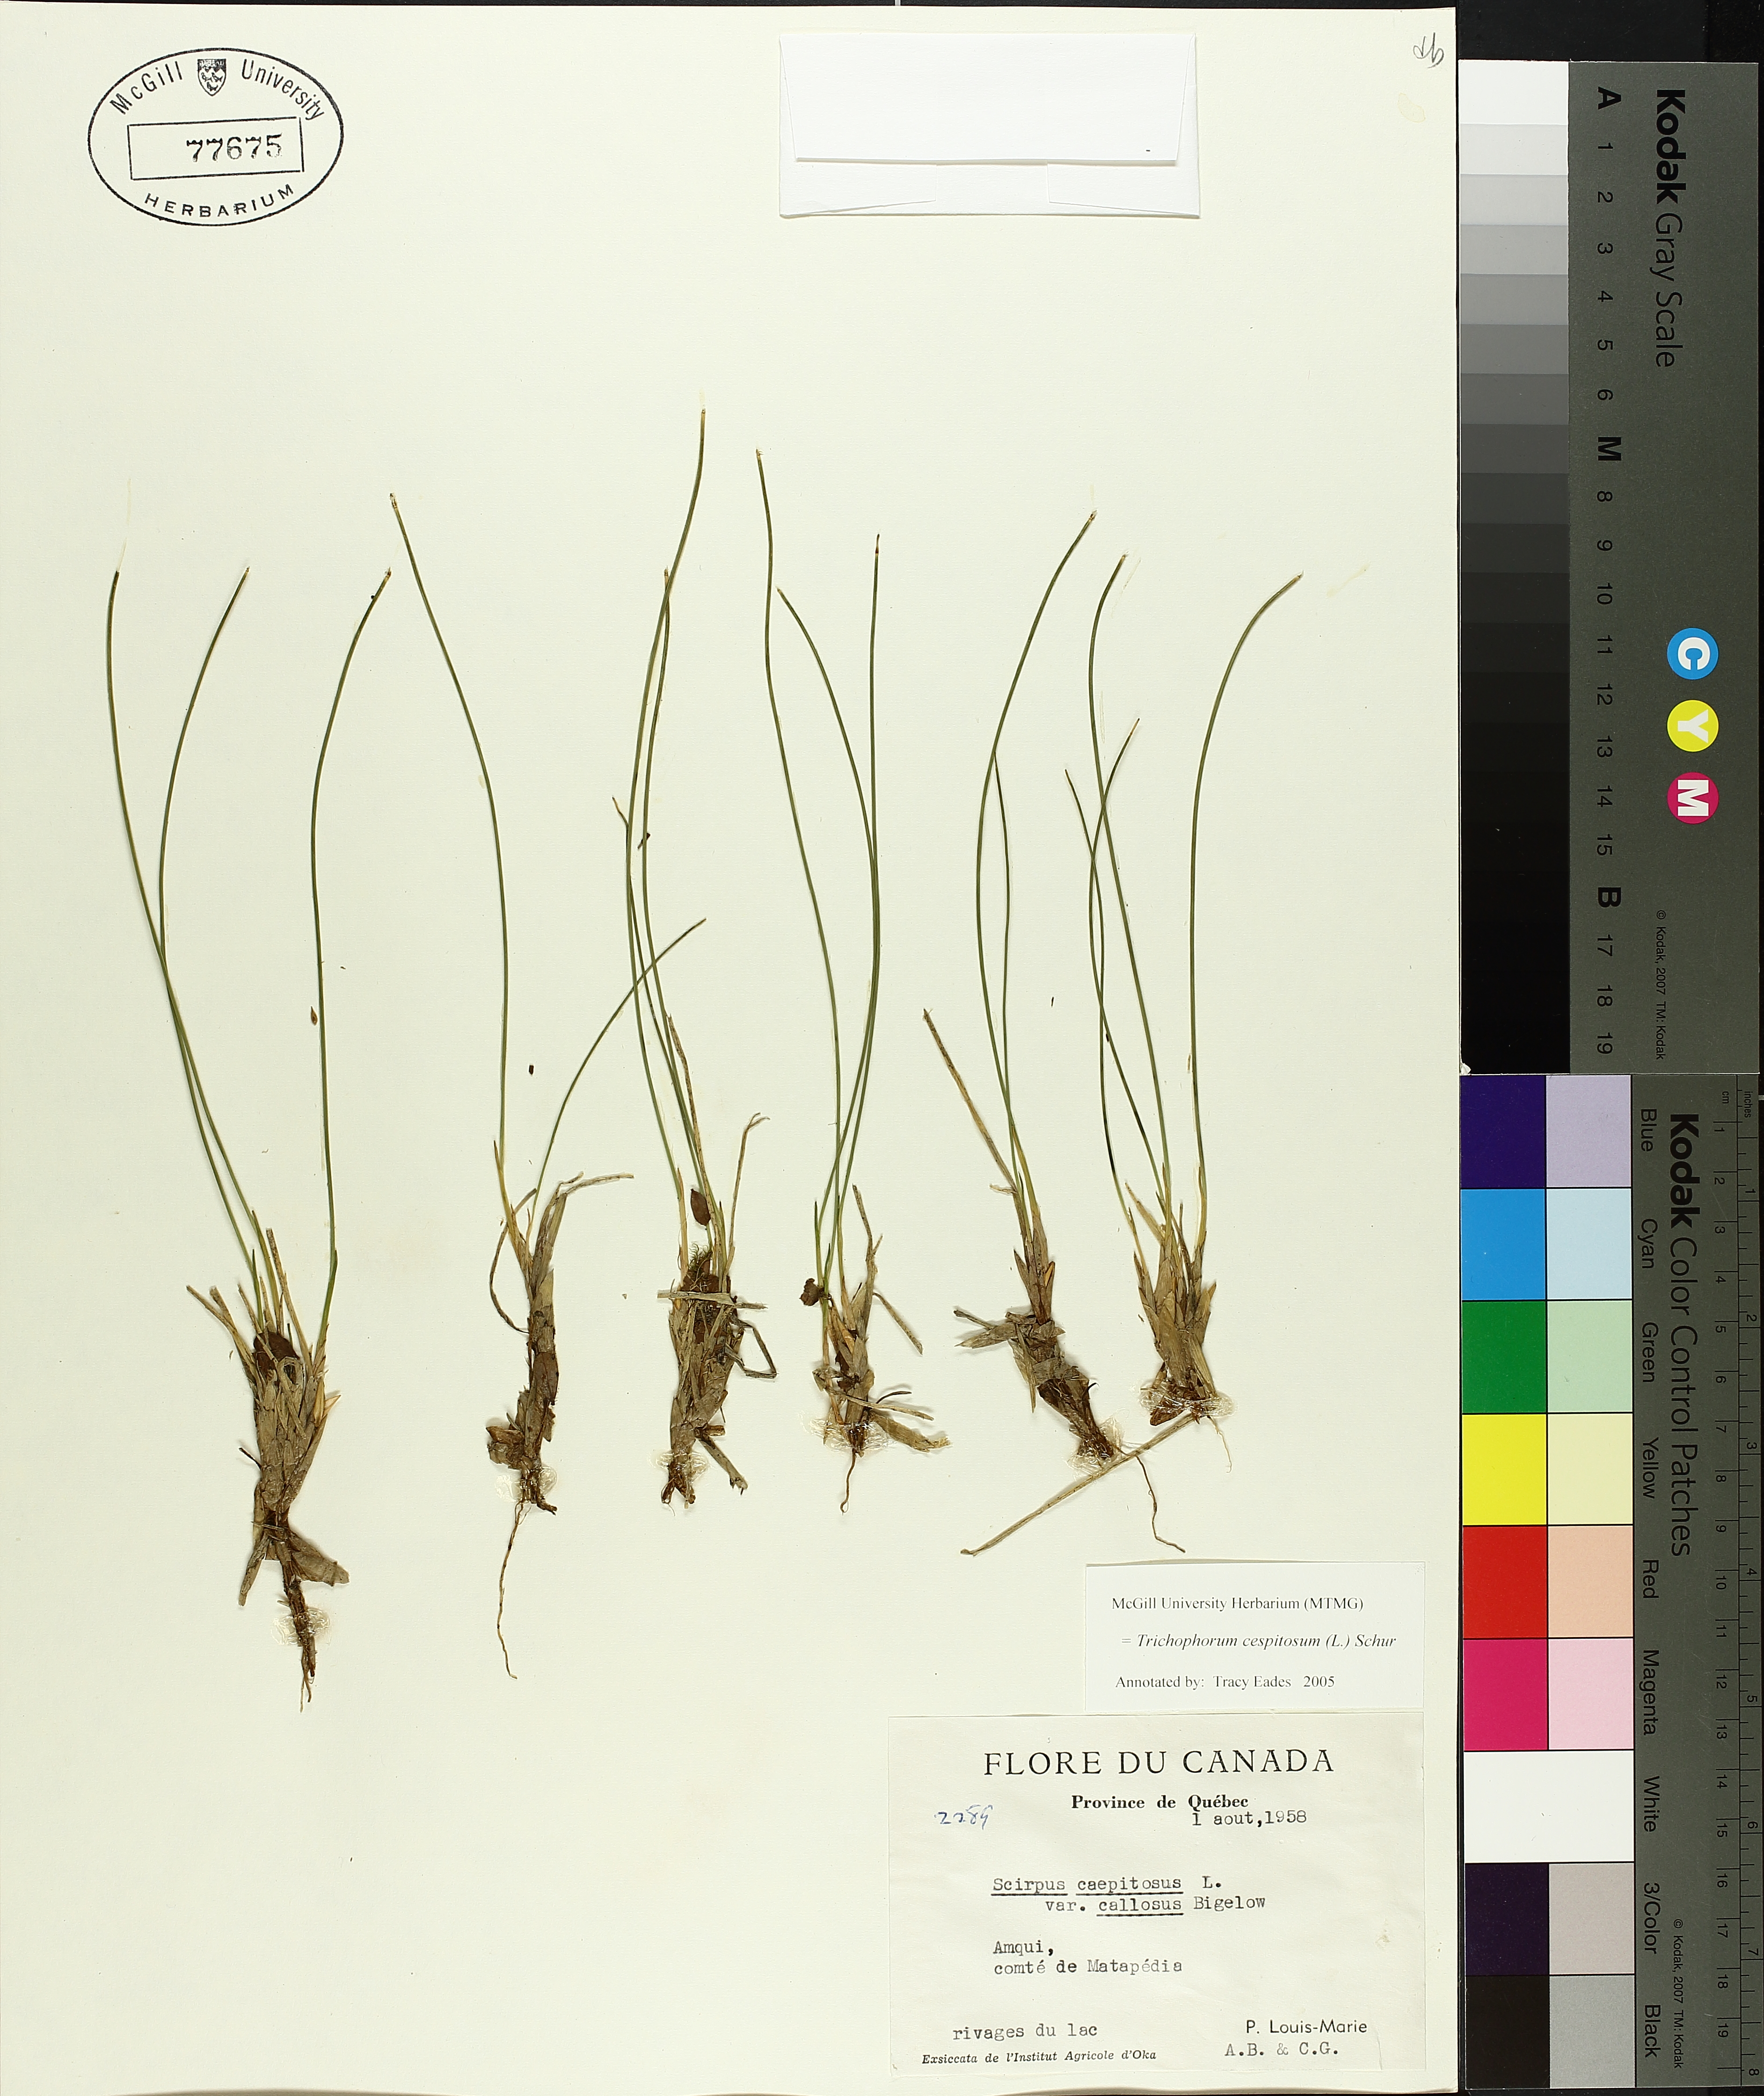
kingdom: Plantae
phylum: Tracheophyta
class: Liliopsida
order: Poales
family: Cyperaceae
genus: Trichophorum
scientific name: Trichophorum cespitosum
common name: Cespitose bulrush
